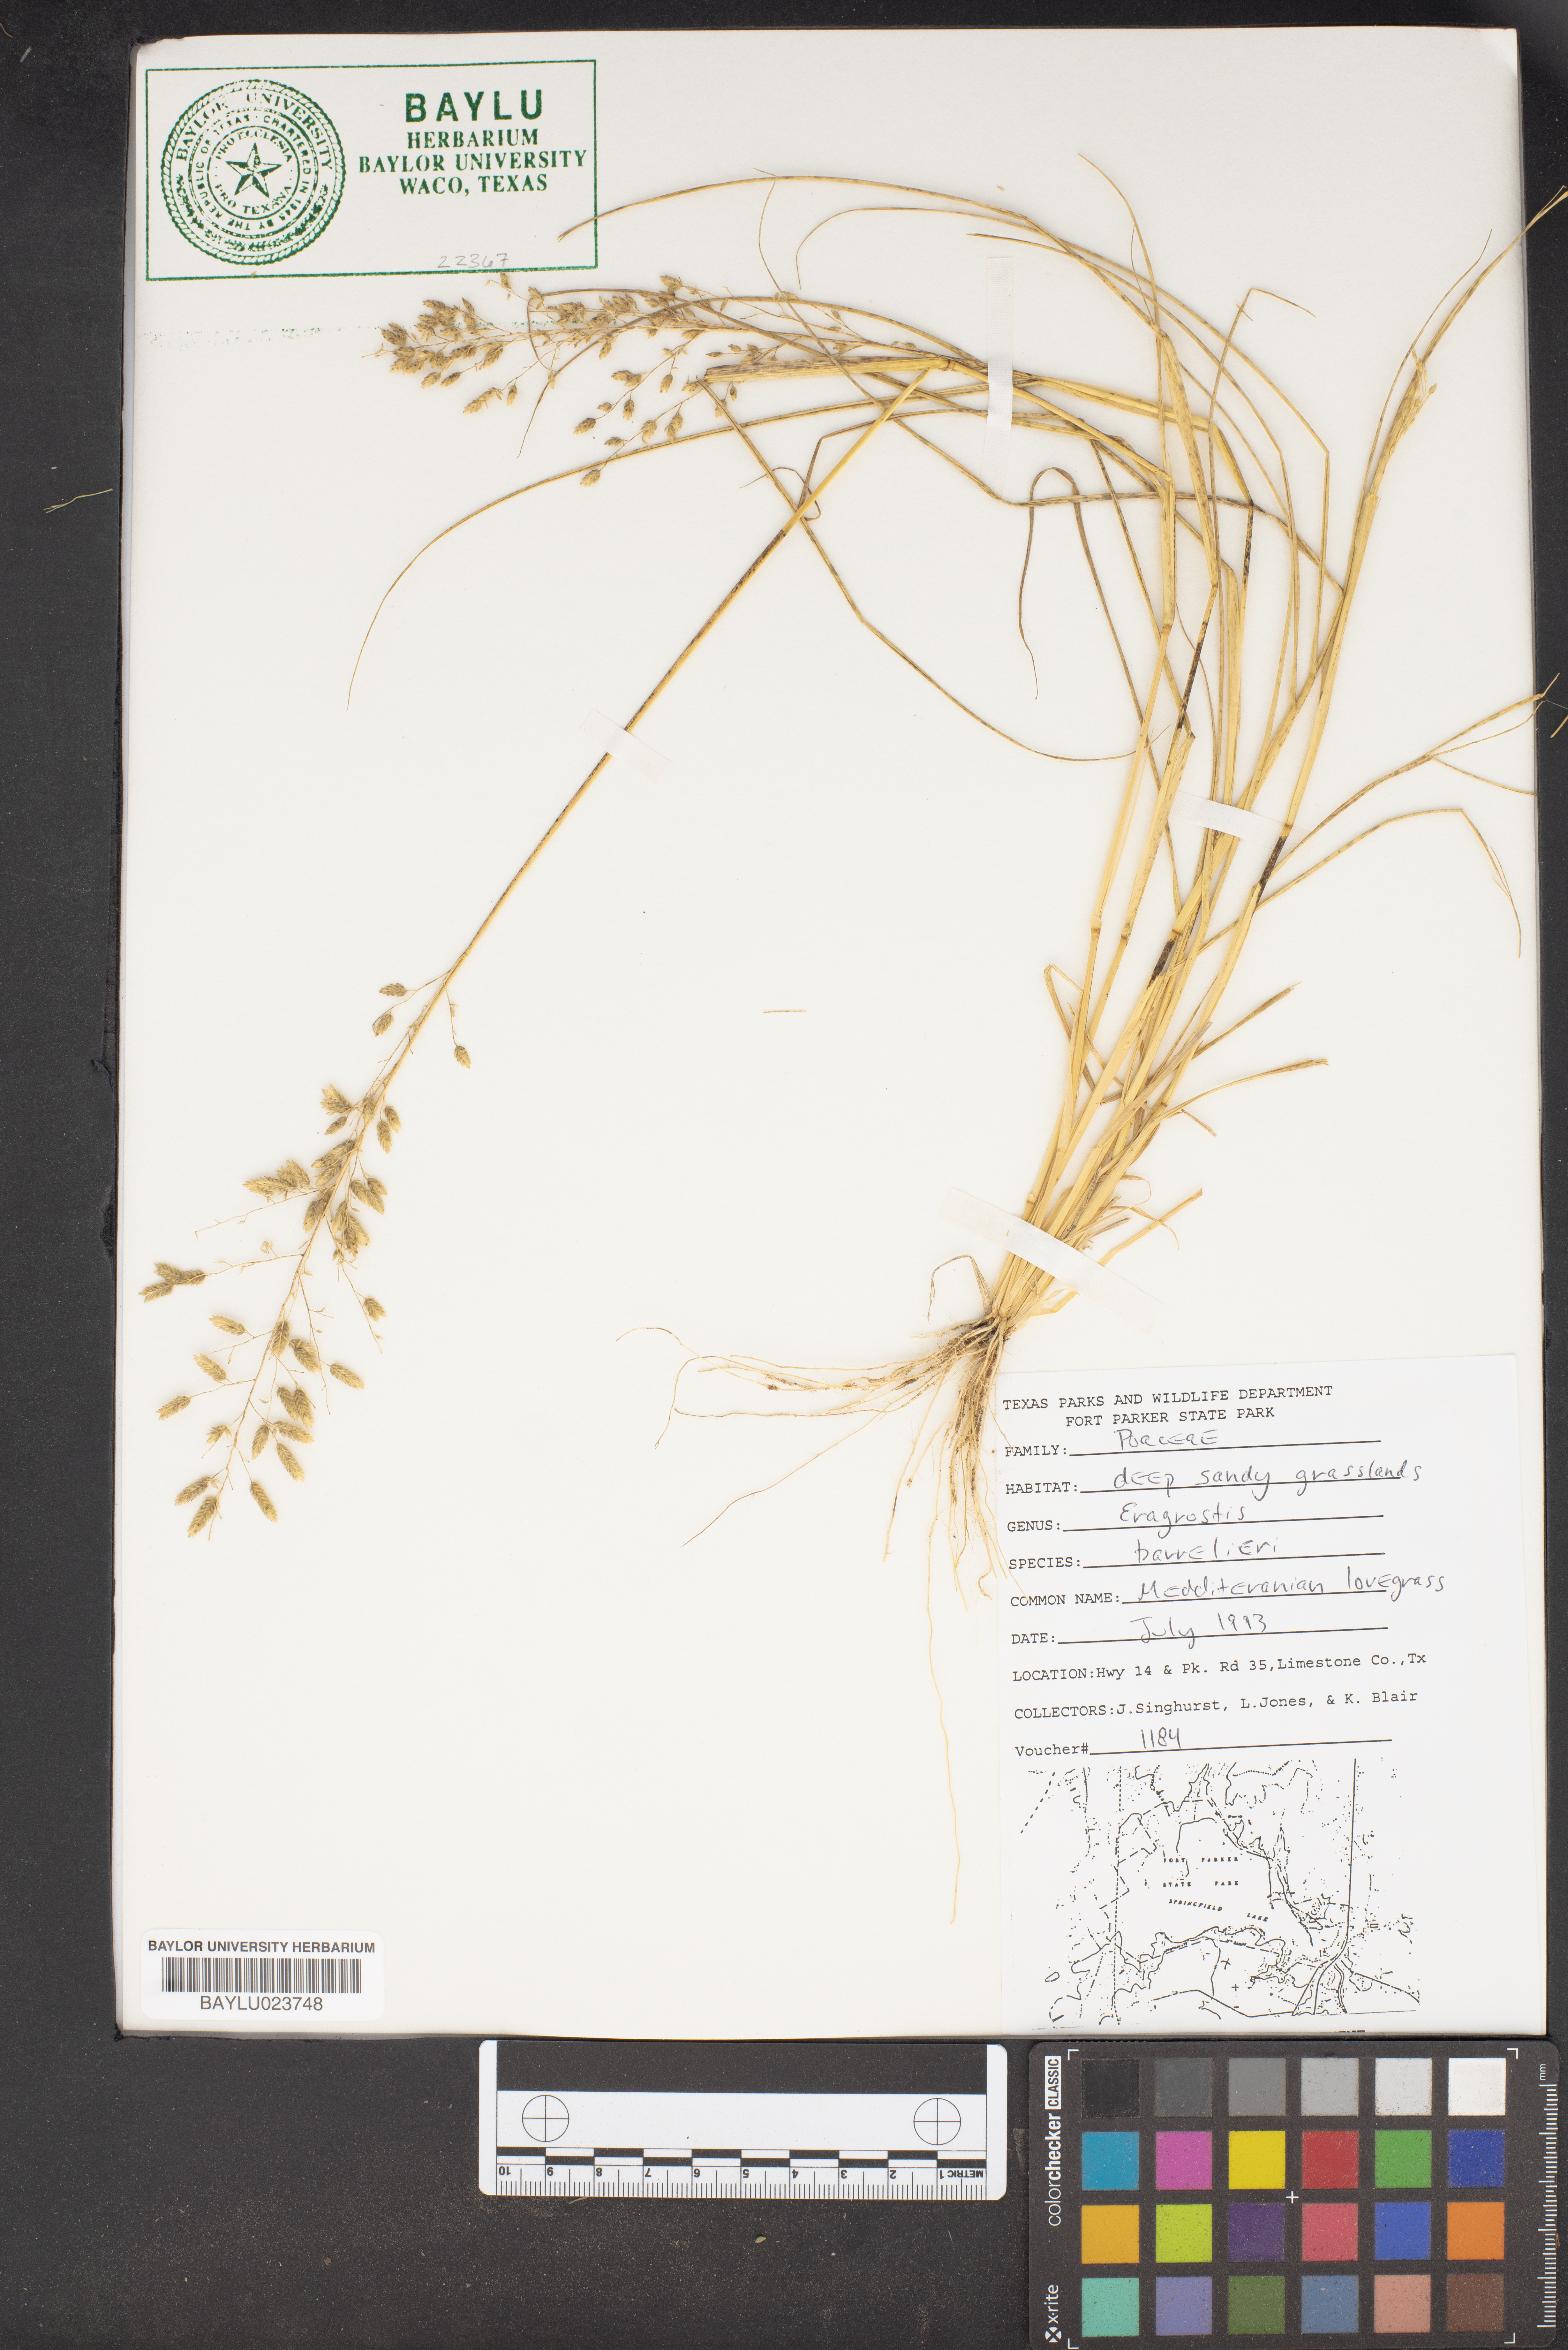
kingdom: Plantae
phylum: Tracheophyta
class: Liliopsida
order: Poales
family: Poaceae
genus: Eragrostis
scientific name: Eragrostis barrelieri
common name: Mediterranean lovegrass
